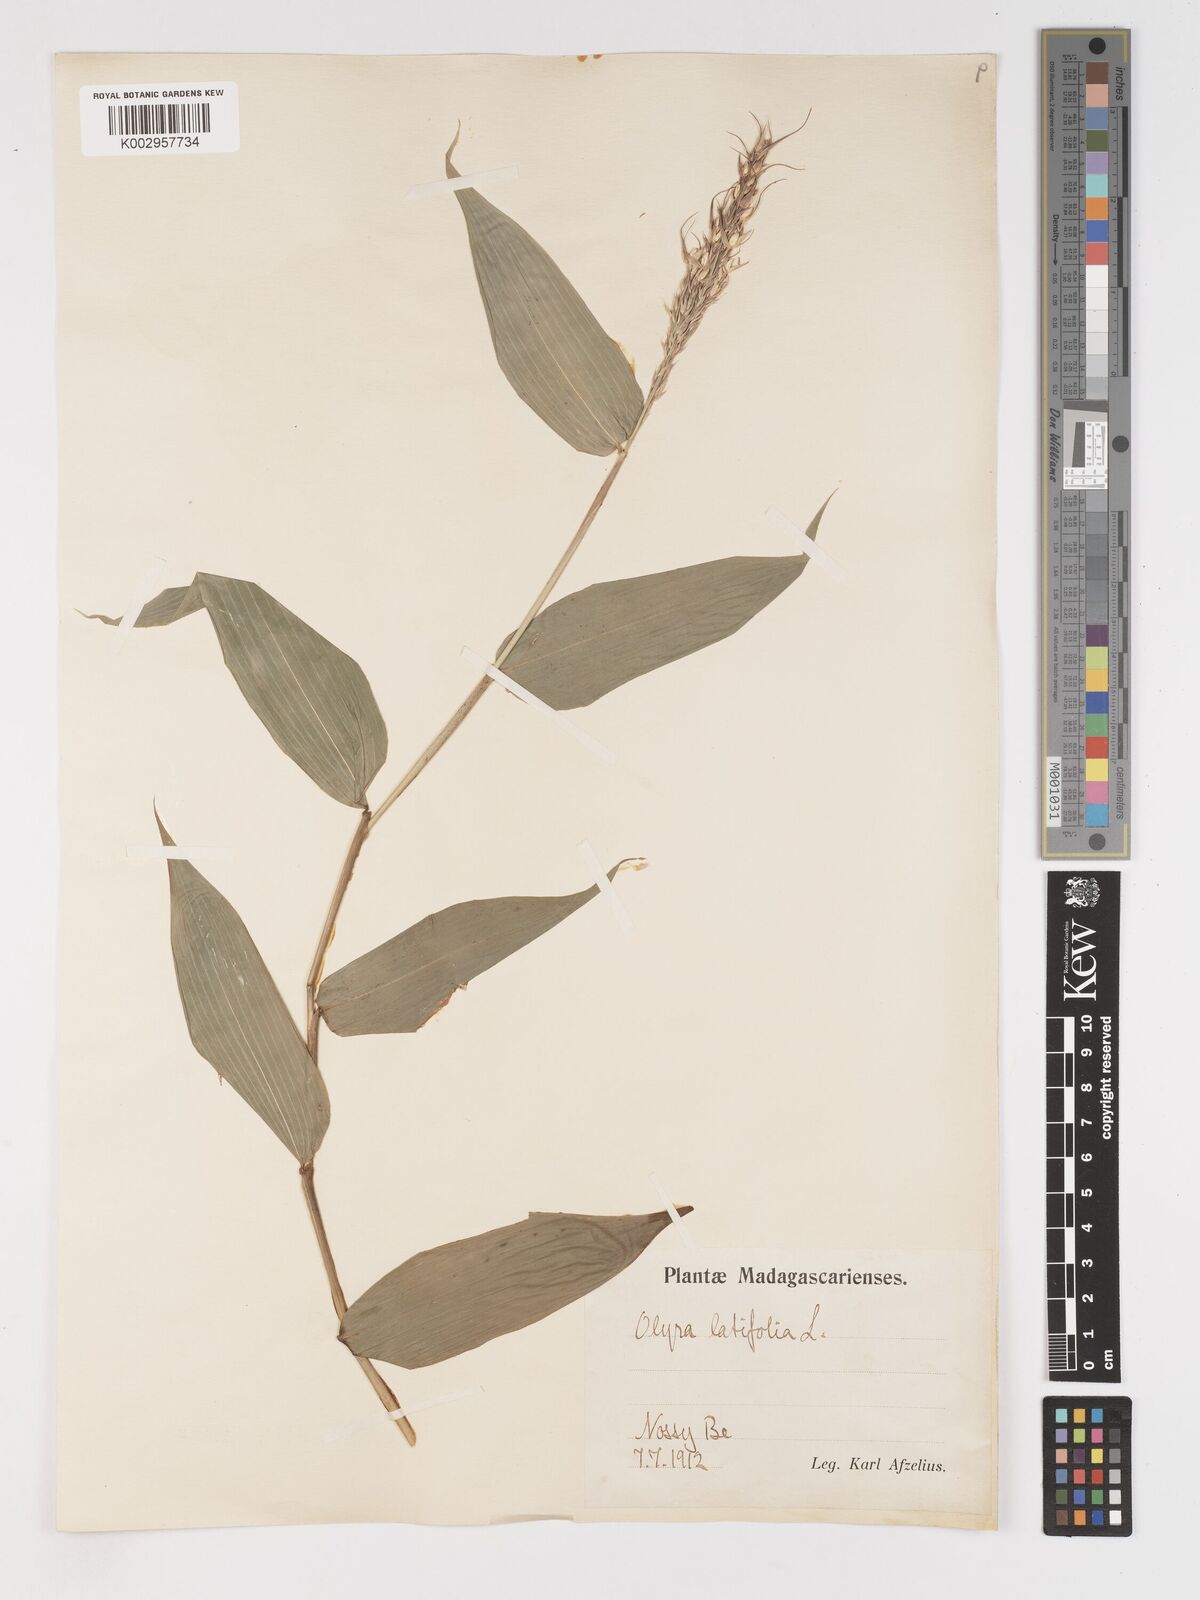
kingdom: Plantae
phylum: Tracheophyta
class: Liliopsida
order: Poales
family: Poaceae
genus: Olyra
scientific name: Olyra latifolia
